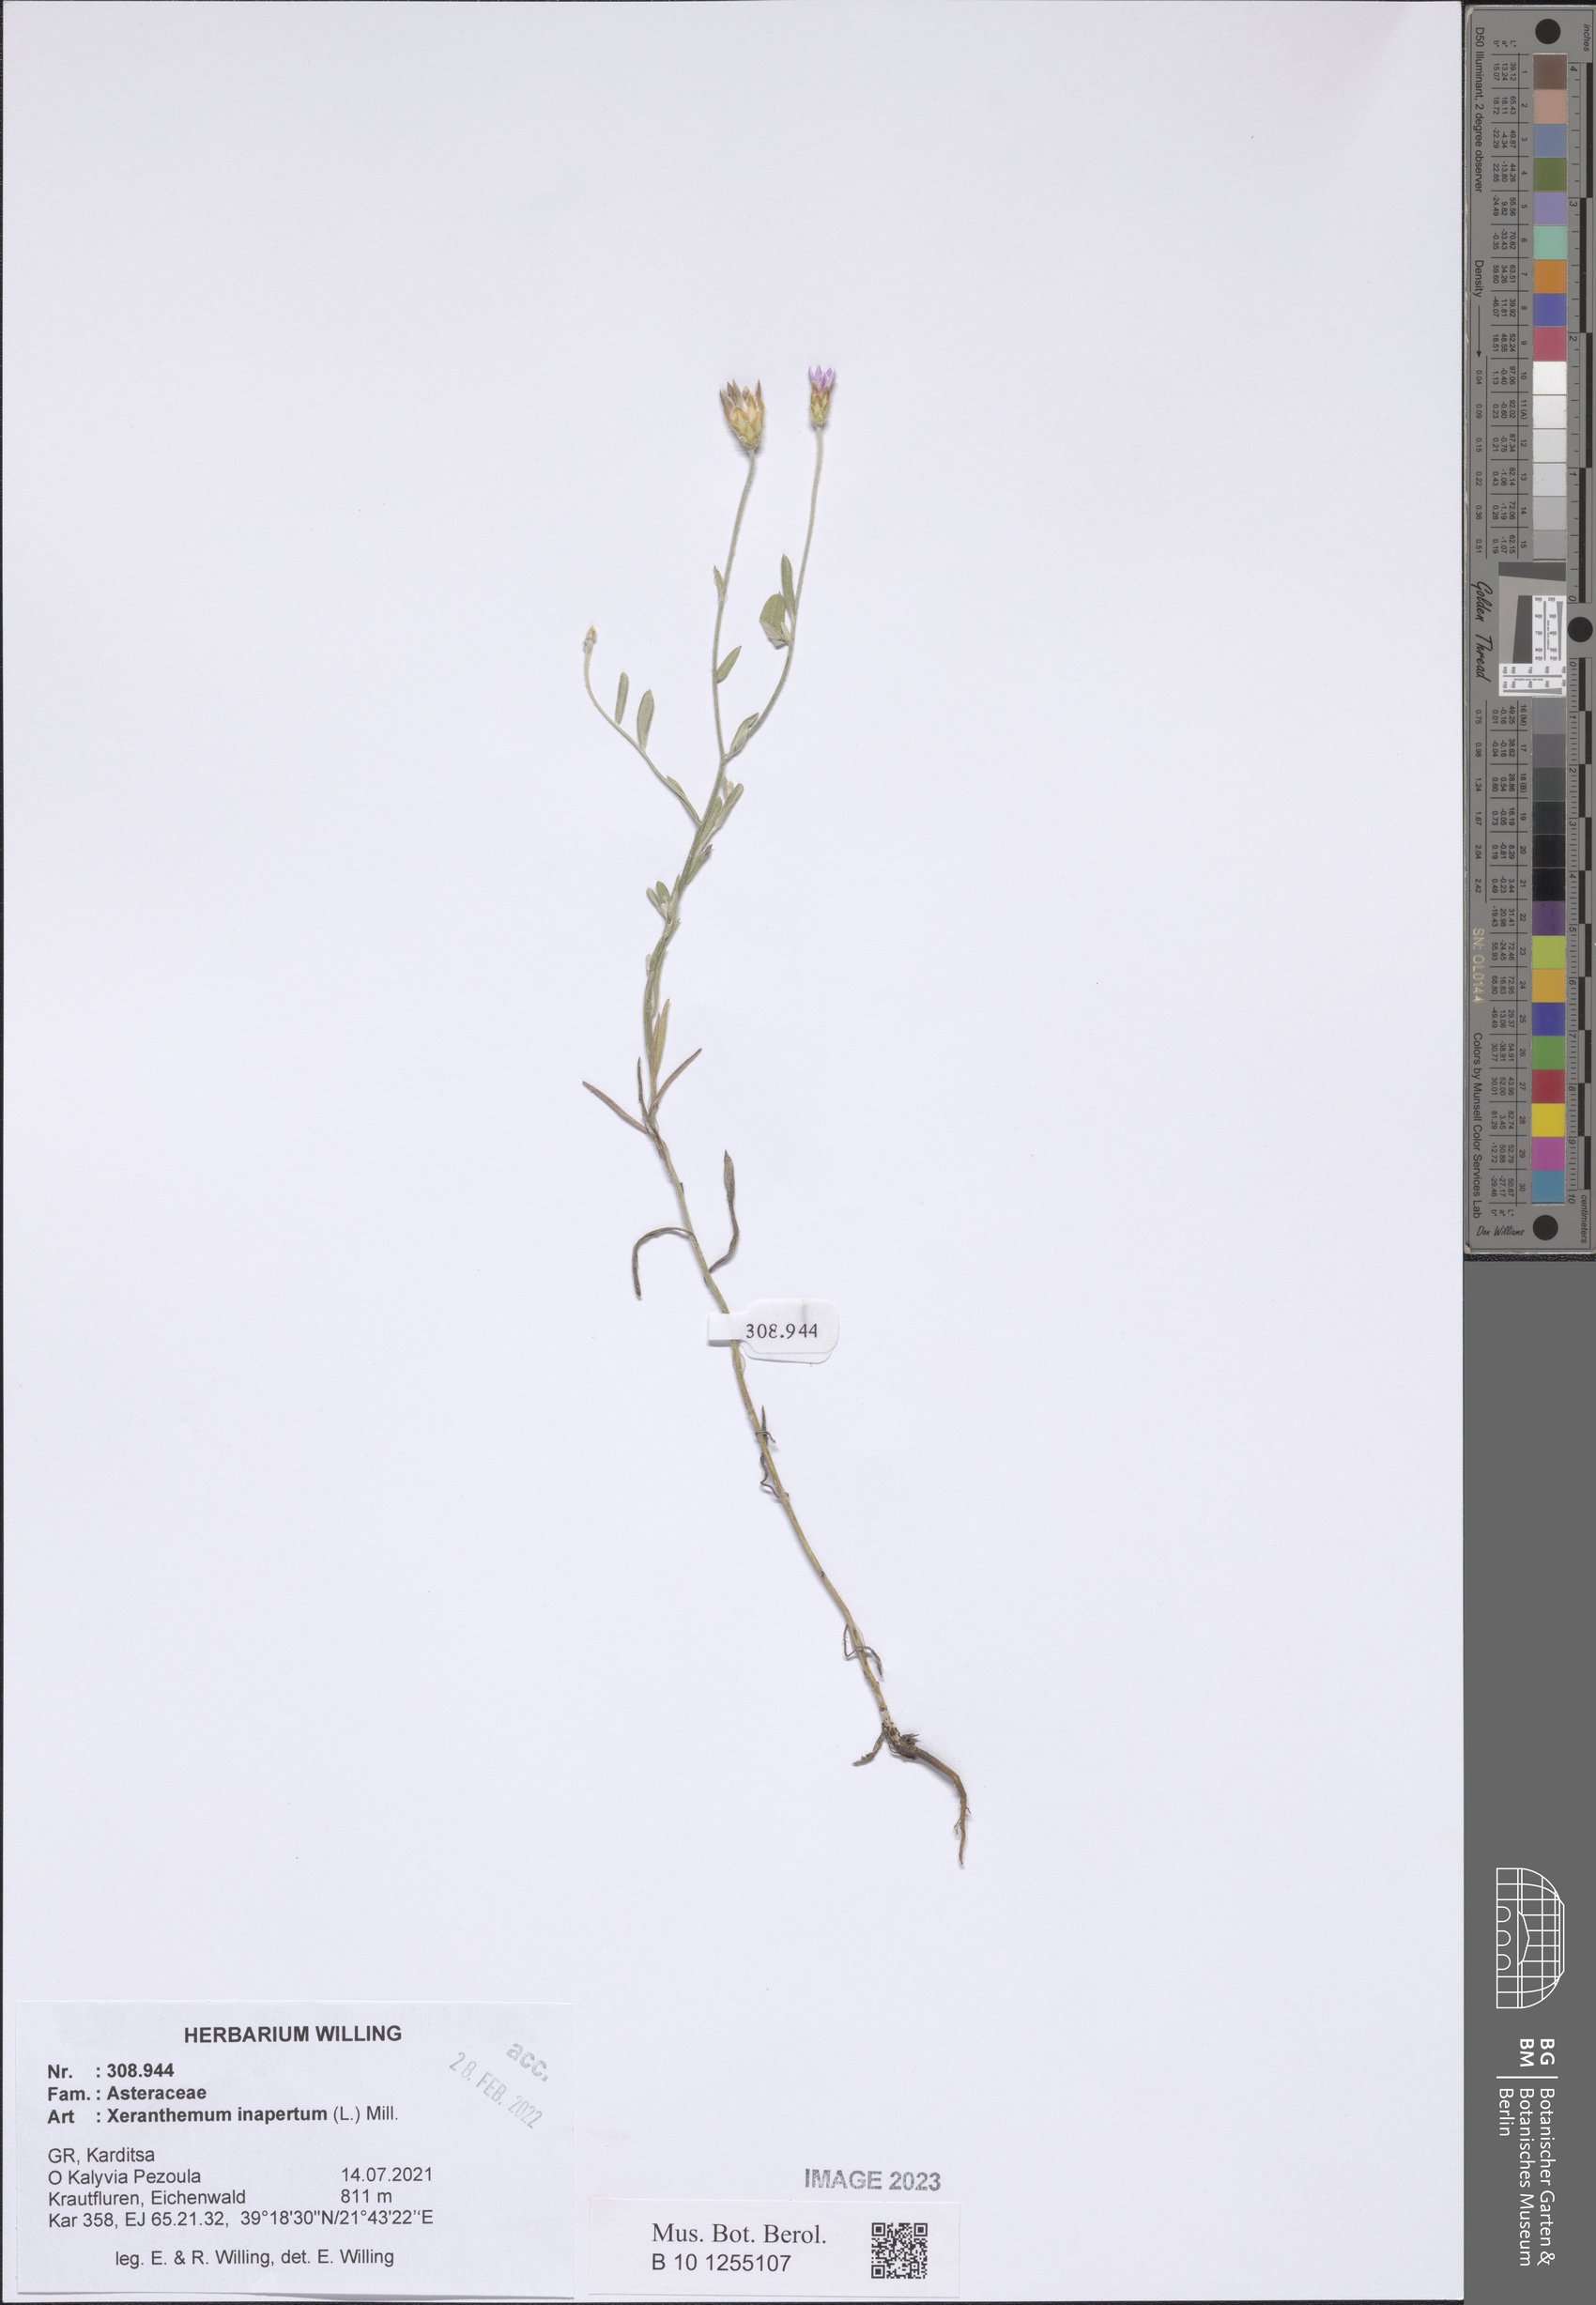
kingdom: Plantae
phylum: Tracheophyta
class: Magnoliopsida
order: Asterales
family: Asteraceae
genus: Xeranthemum
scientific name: Xeranthemum inapertum
